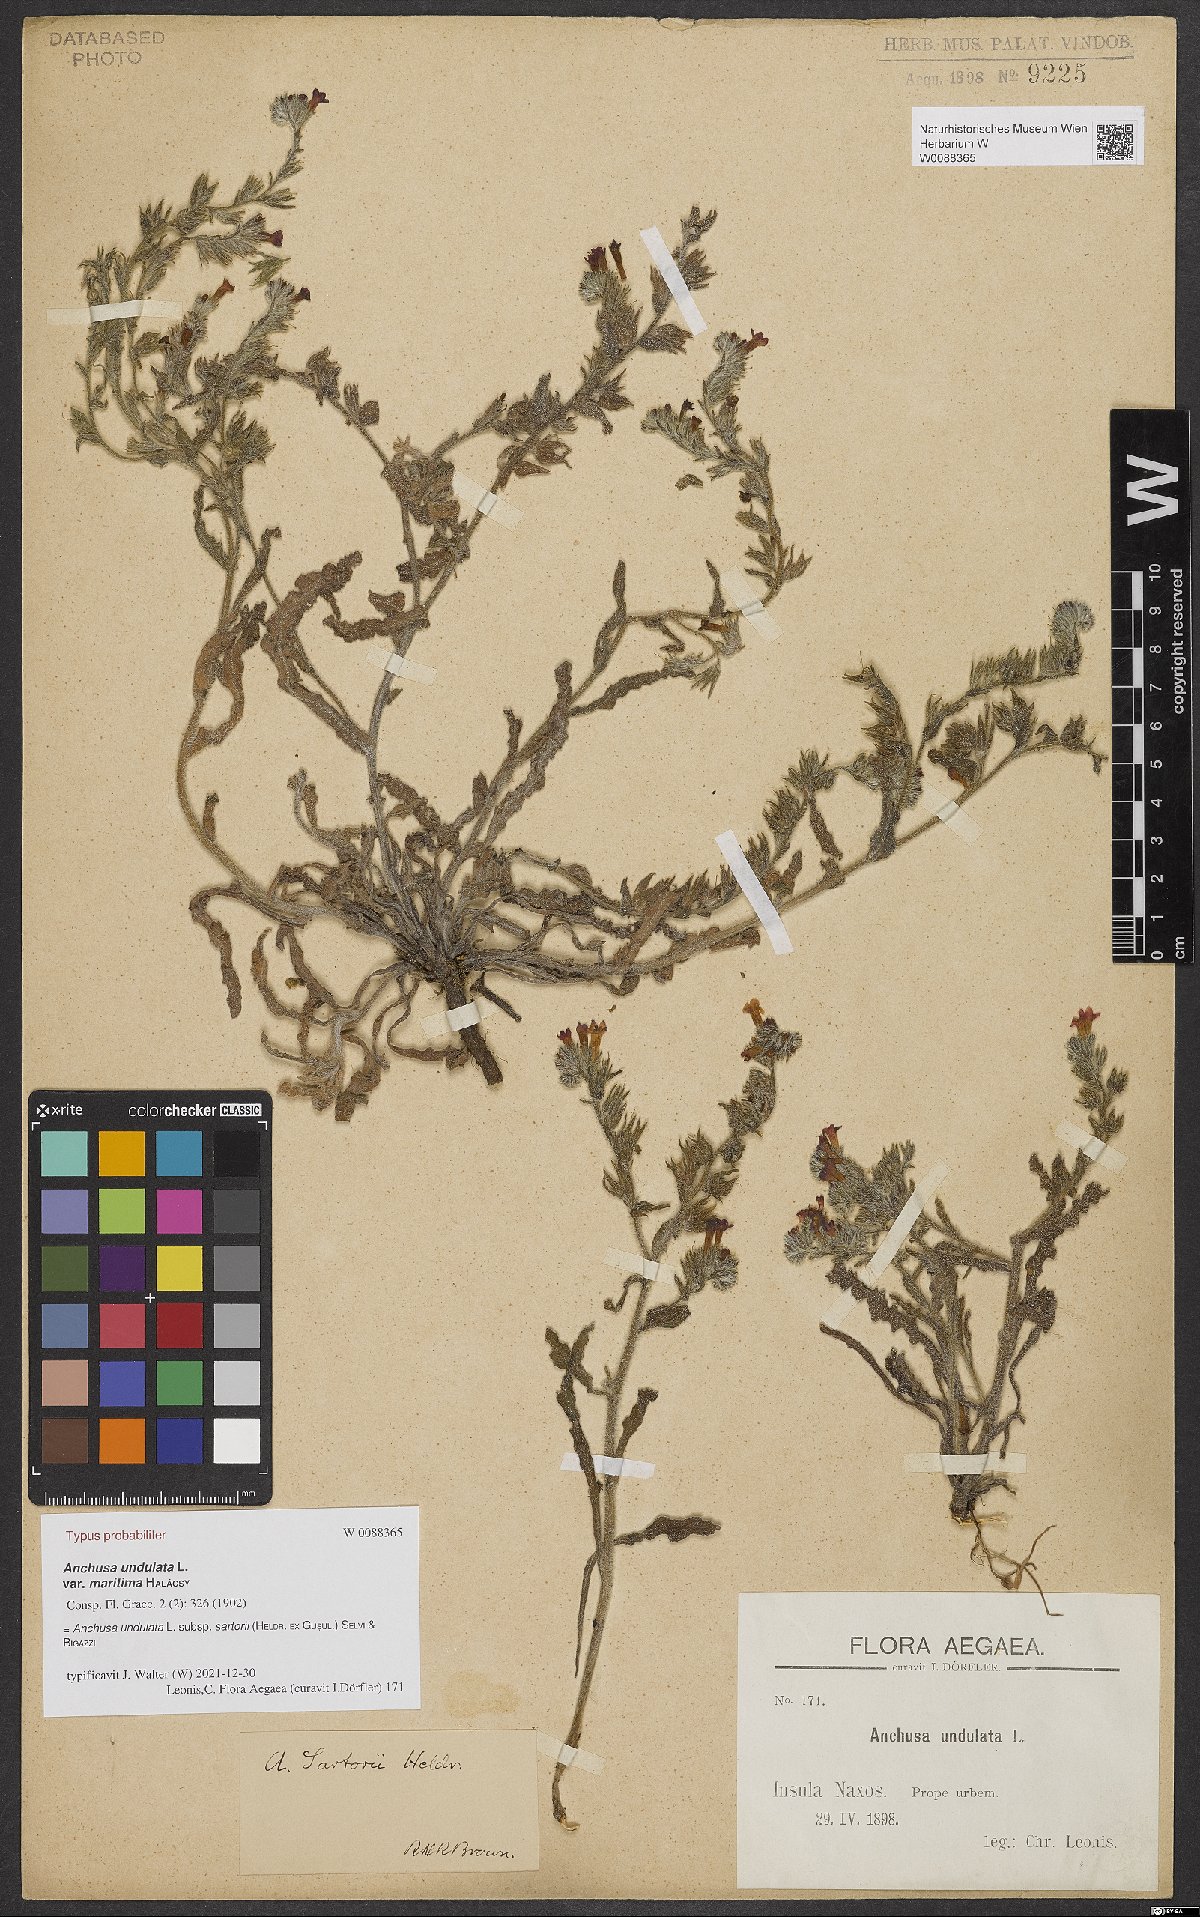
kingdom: Plantae
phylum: Tracheophyta
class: Magnoliopsida
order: Boraginales
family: Boraginaceae
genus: Anchusa
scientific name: Anchusa undulata
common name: Undulate alkanet
